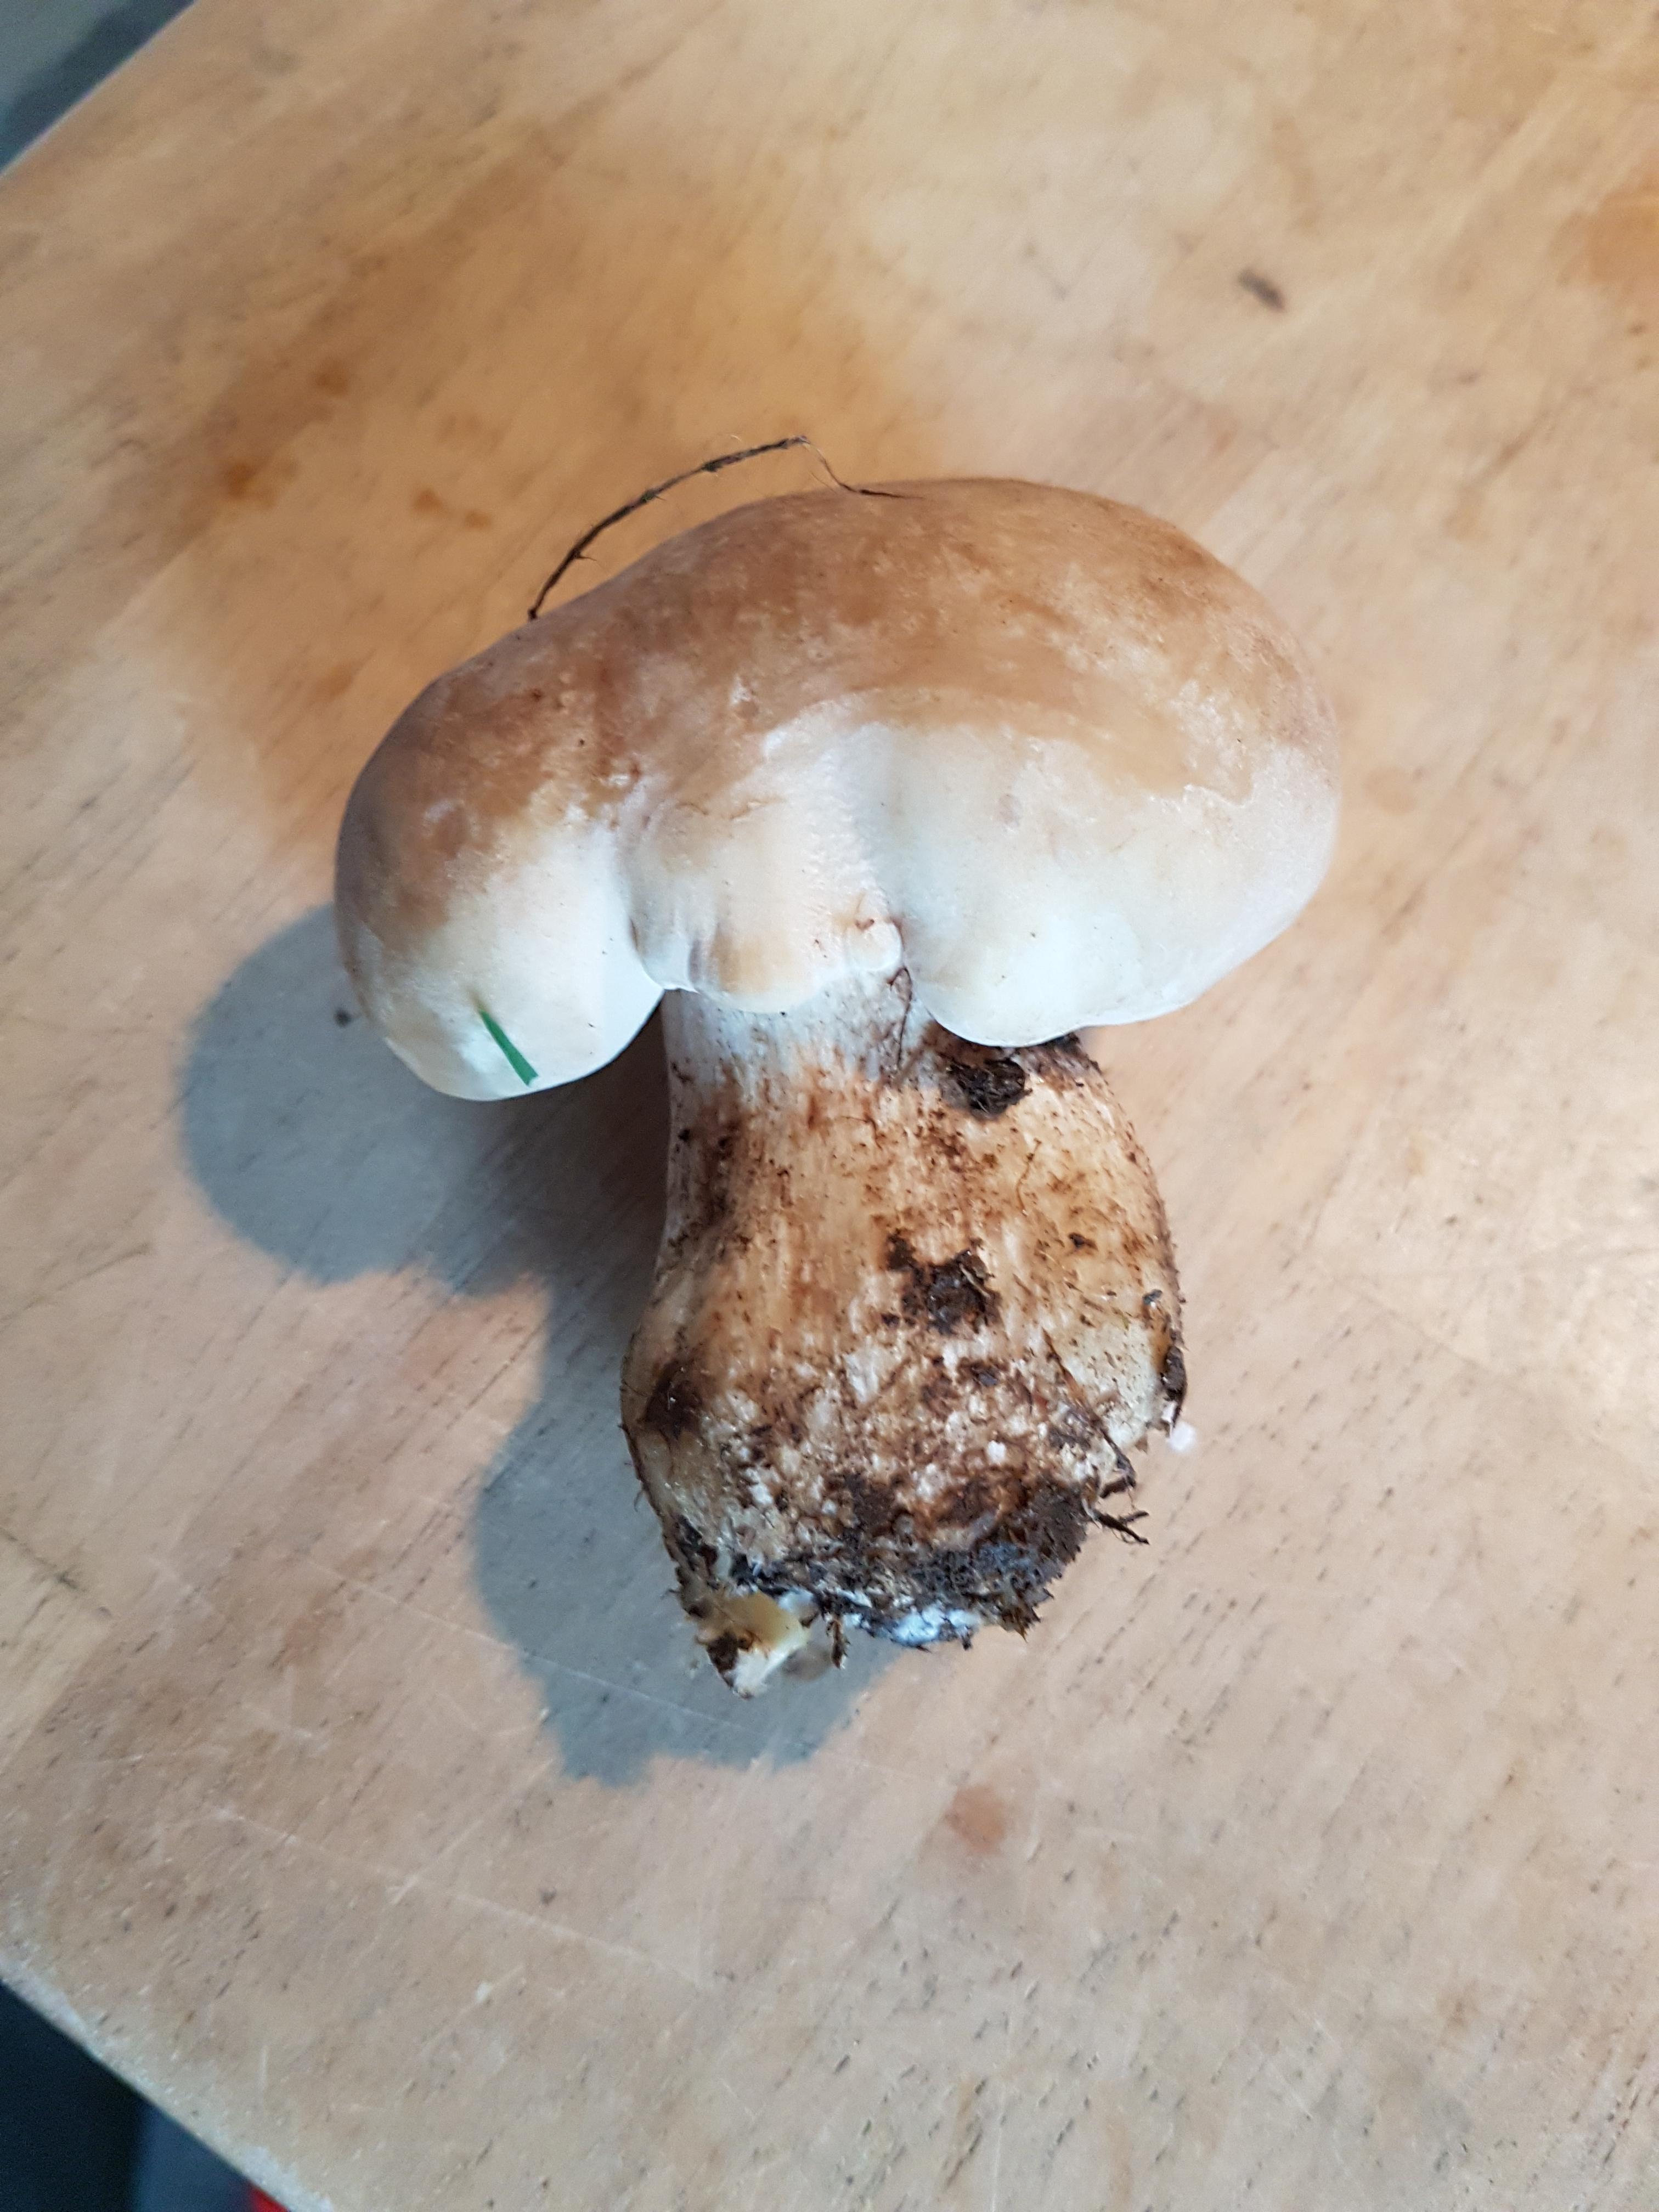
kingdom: Fungi
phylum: Basidiomycota
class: Agaricomycetes
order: Agaricales
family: Lyophyllaceae
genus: Calocybe
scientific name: Calocybe gambosa
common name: vårmusseron
